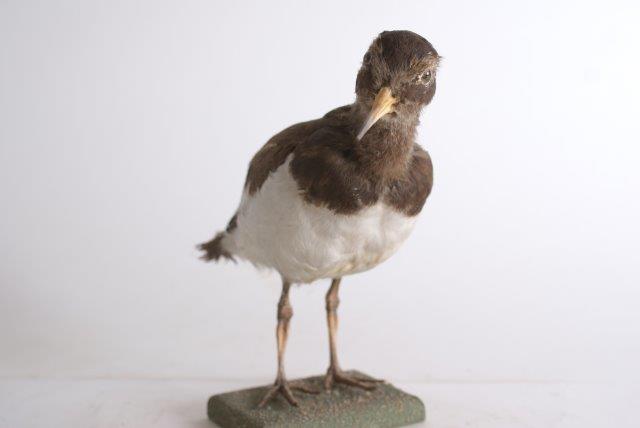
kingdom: Animalia
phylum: Chordata
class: Aves
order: Charadriiformes
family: Haematopodidae
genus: Haematopus
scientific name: Haematopus ostralegus
